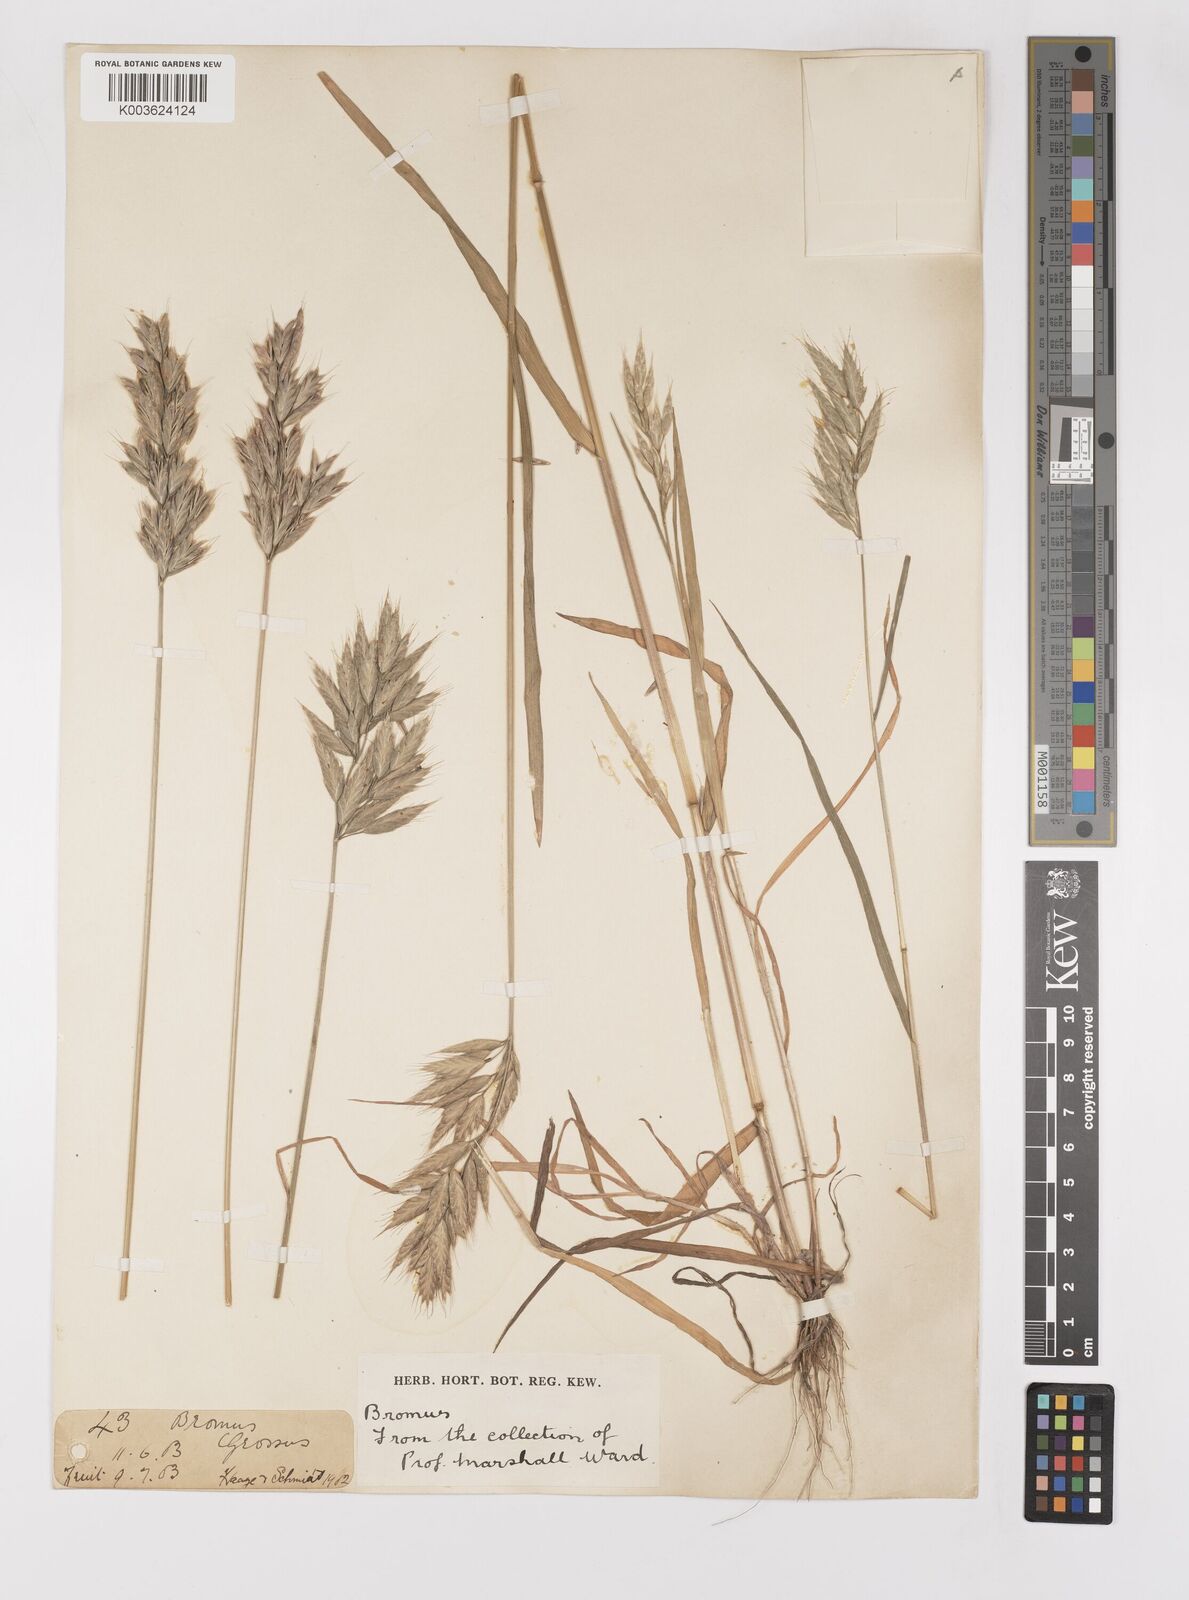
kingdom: Plantae
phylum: Tracheophyta
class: Liliopsida
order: Poales
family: Poaceae
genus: Bromus
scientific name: Bromus hordeaceus
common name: Soft brome
